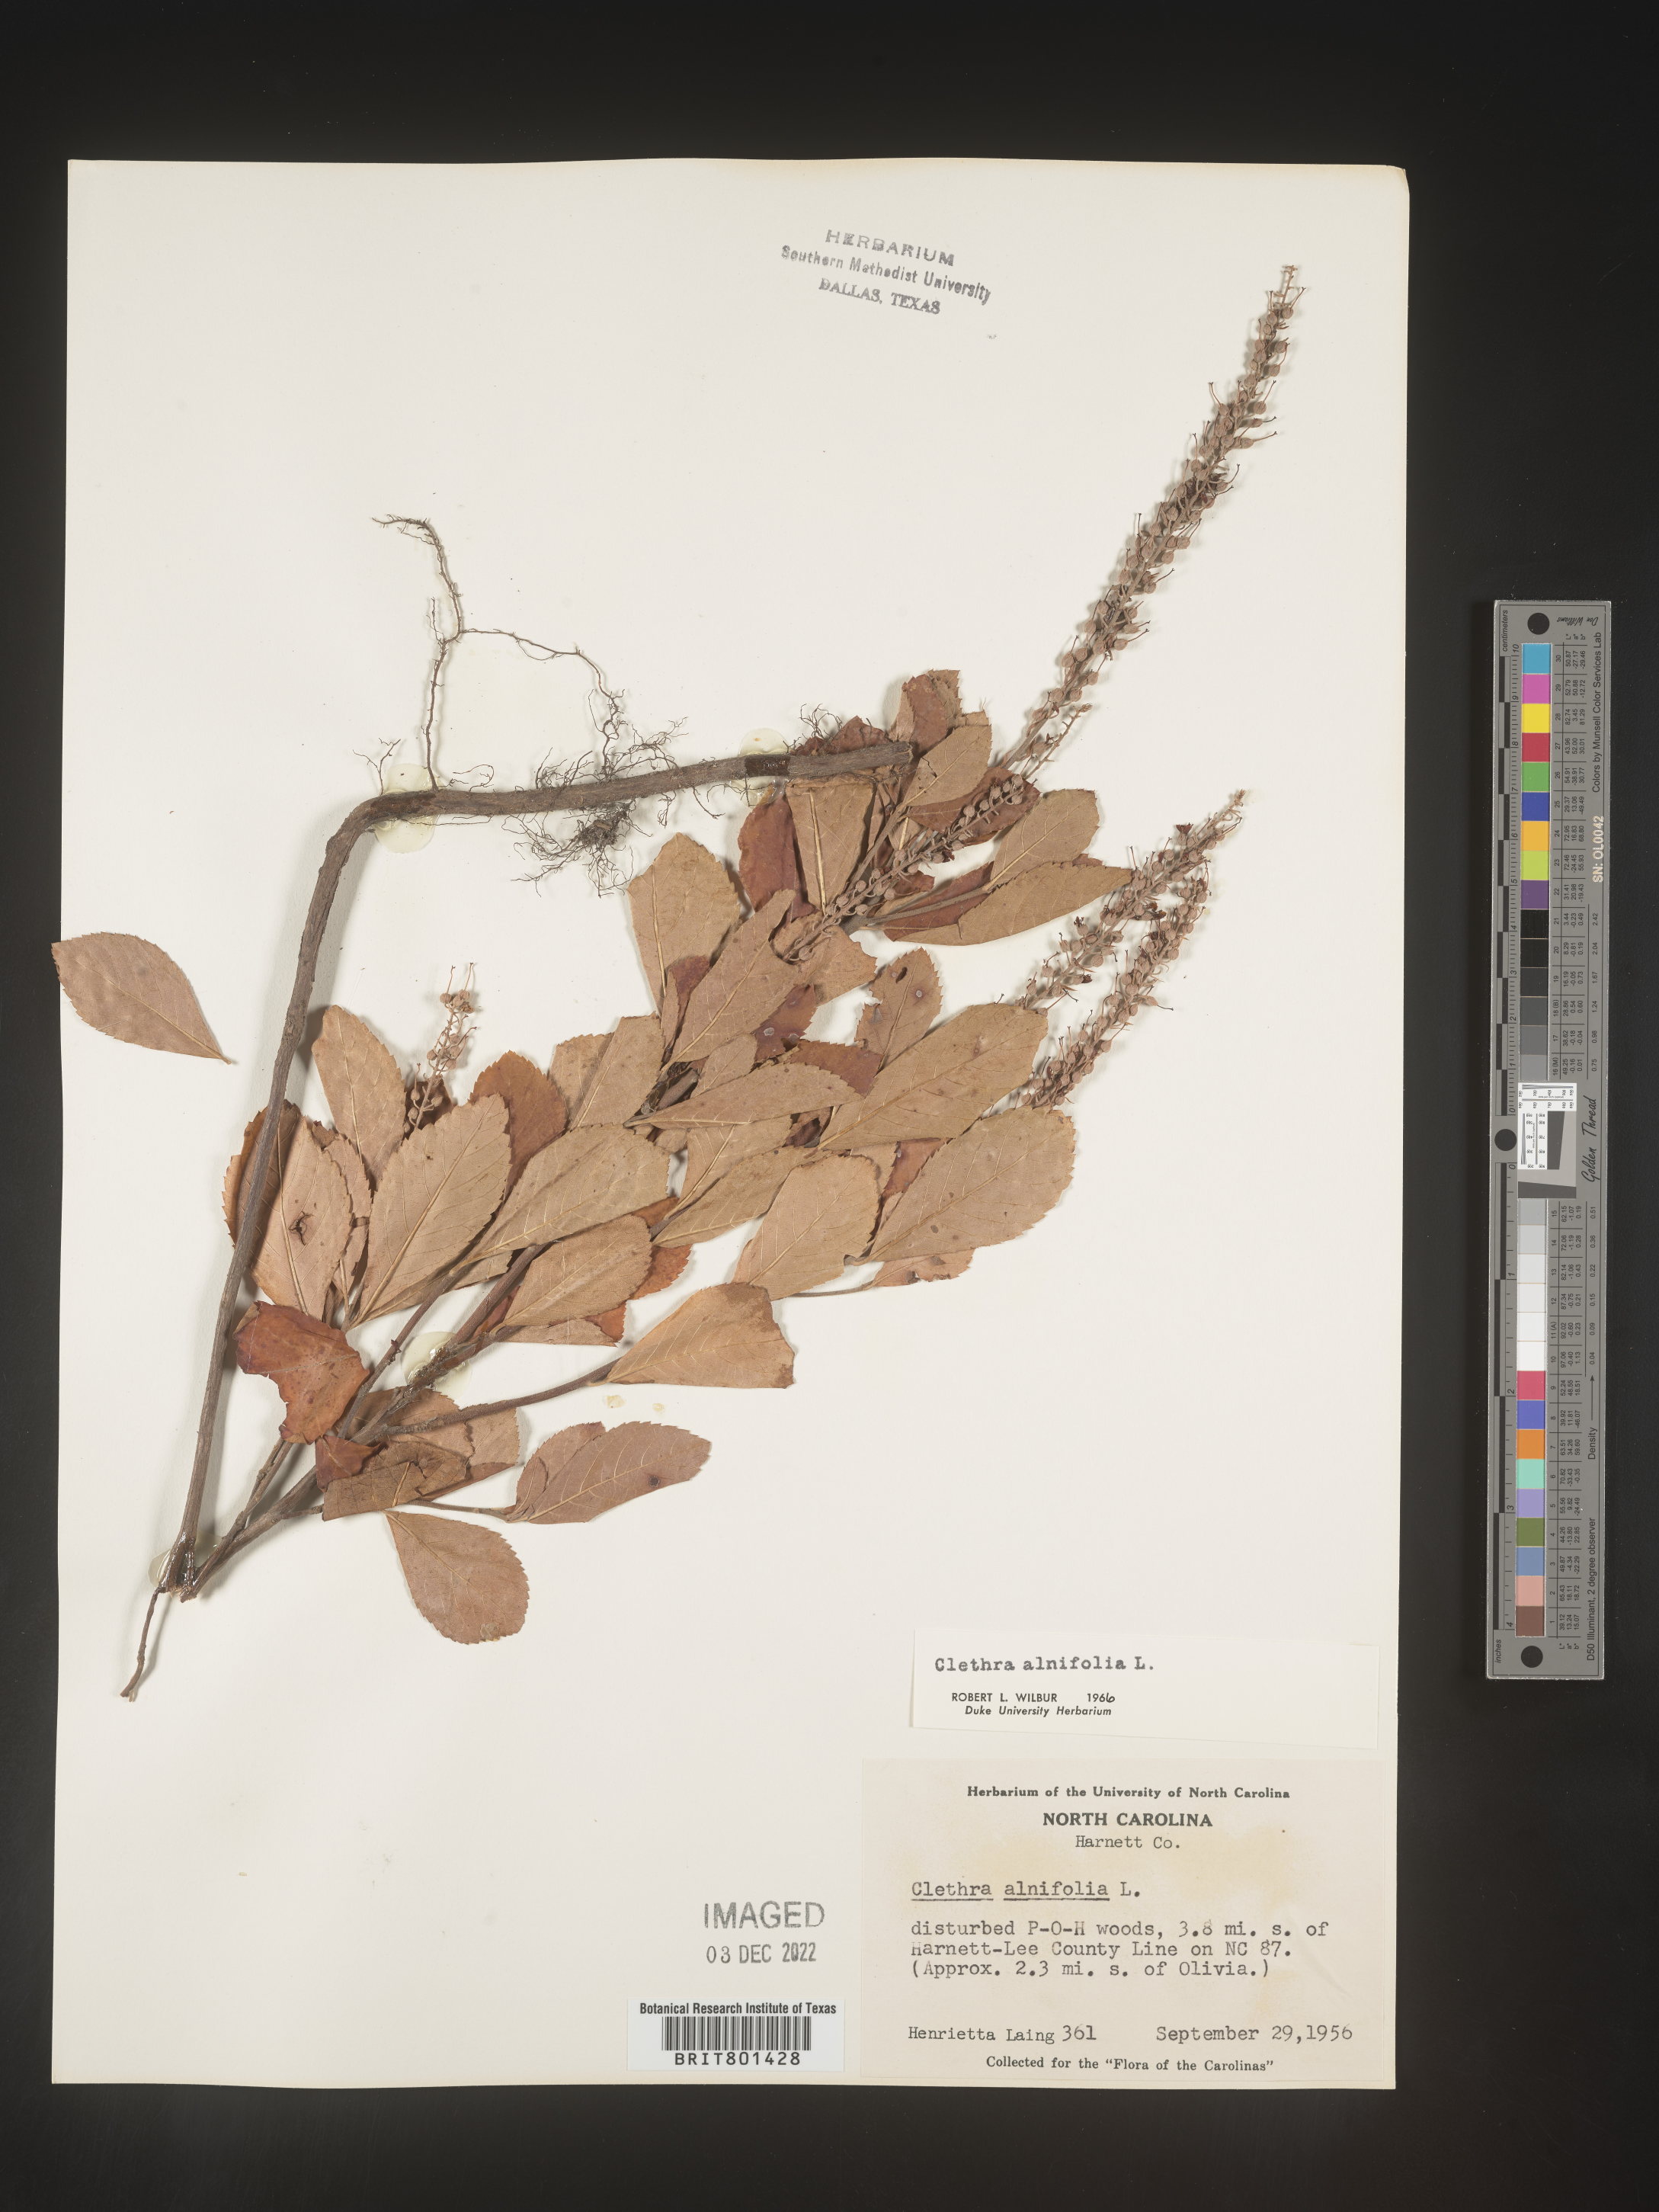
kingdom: Plantae
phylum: Tracheophyta
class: Magnoliopsida
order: Ericales
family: Clethraceae
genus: Clethra
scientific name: Clethra alnifolia
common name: Sweet pepperbush
